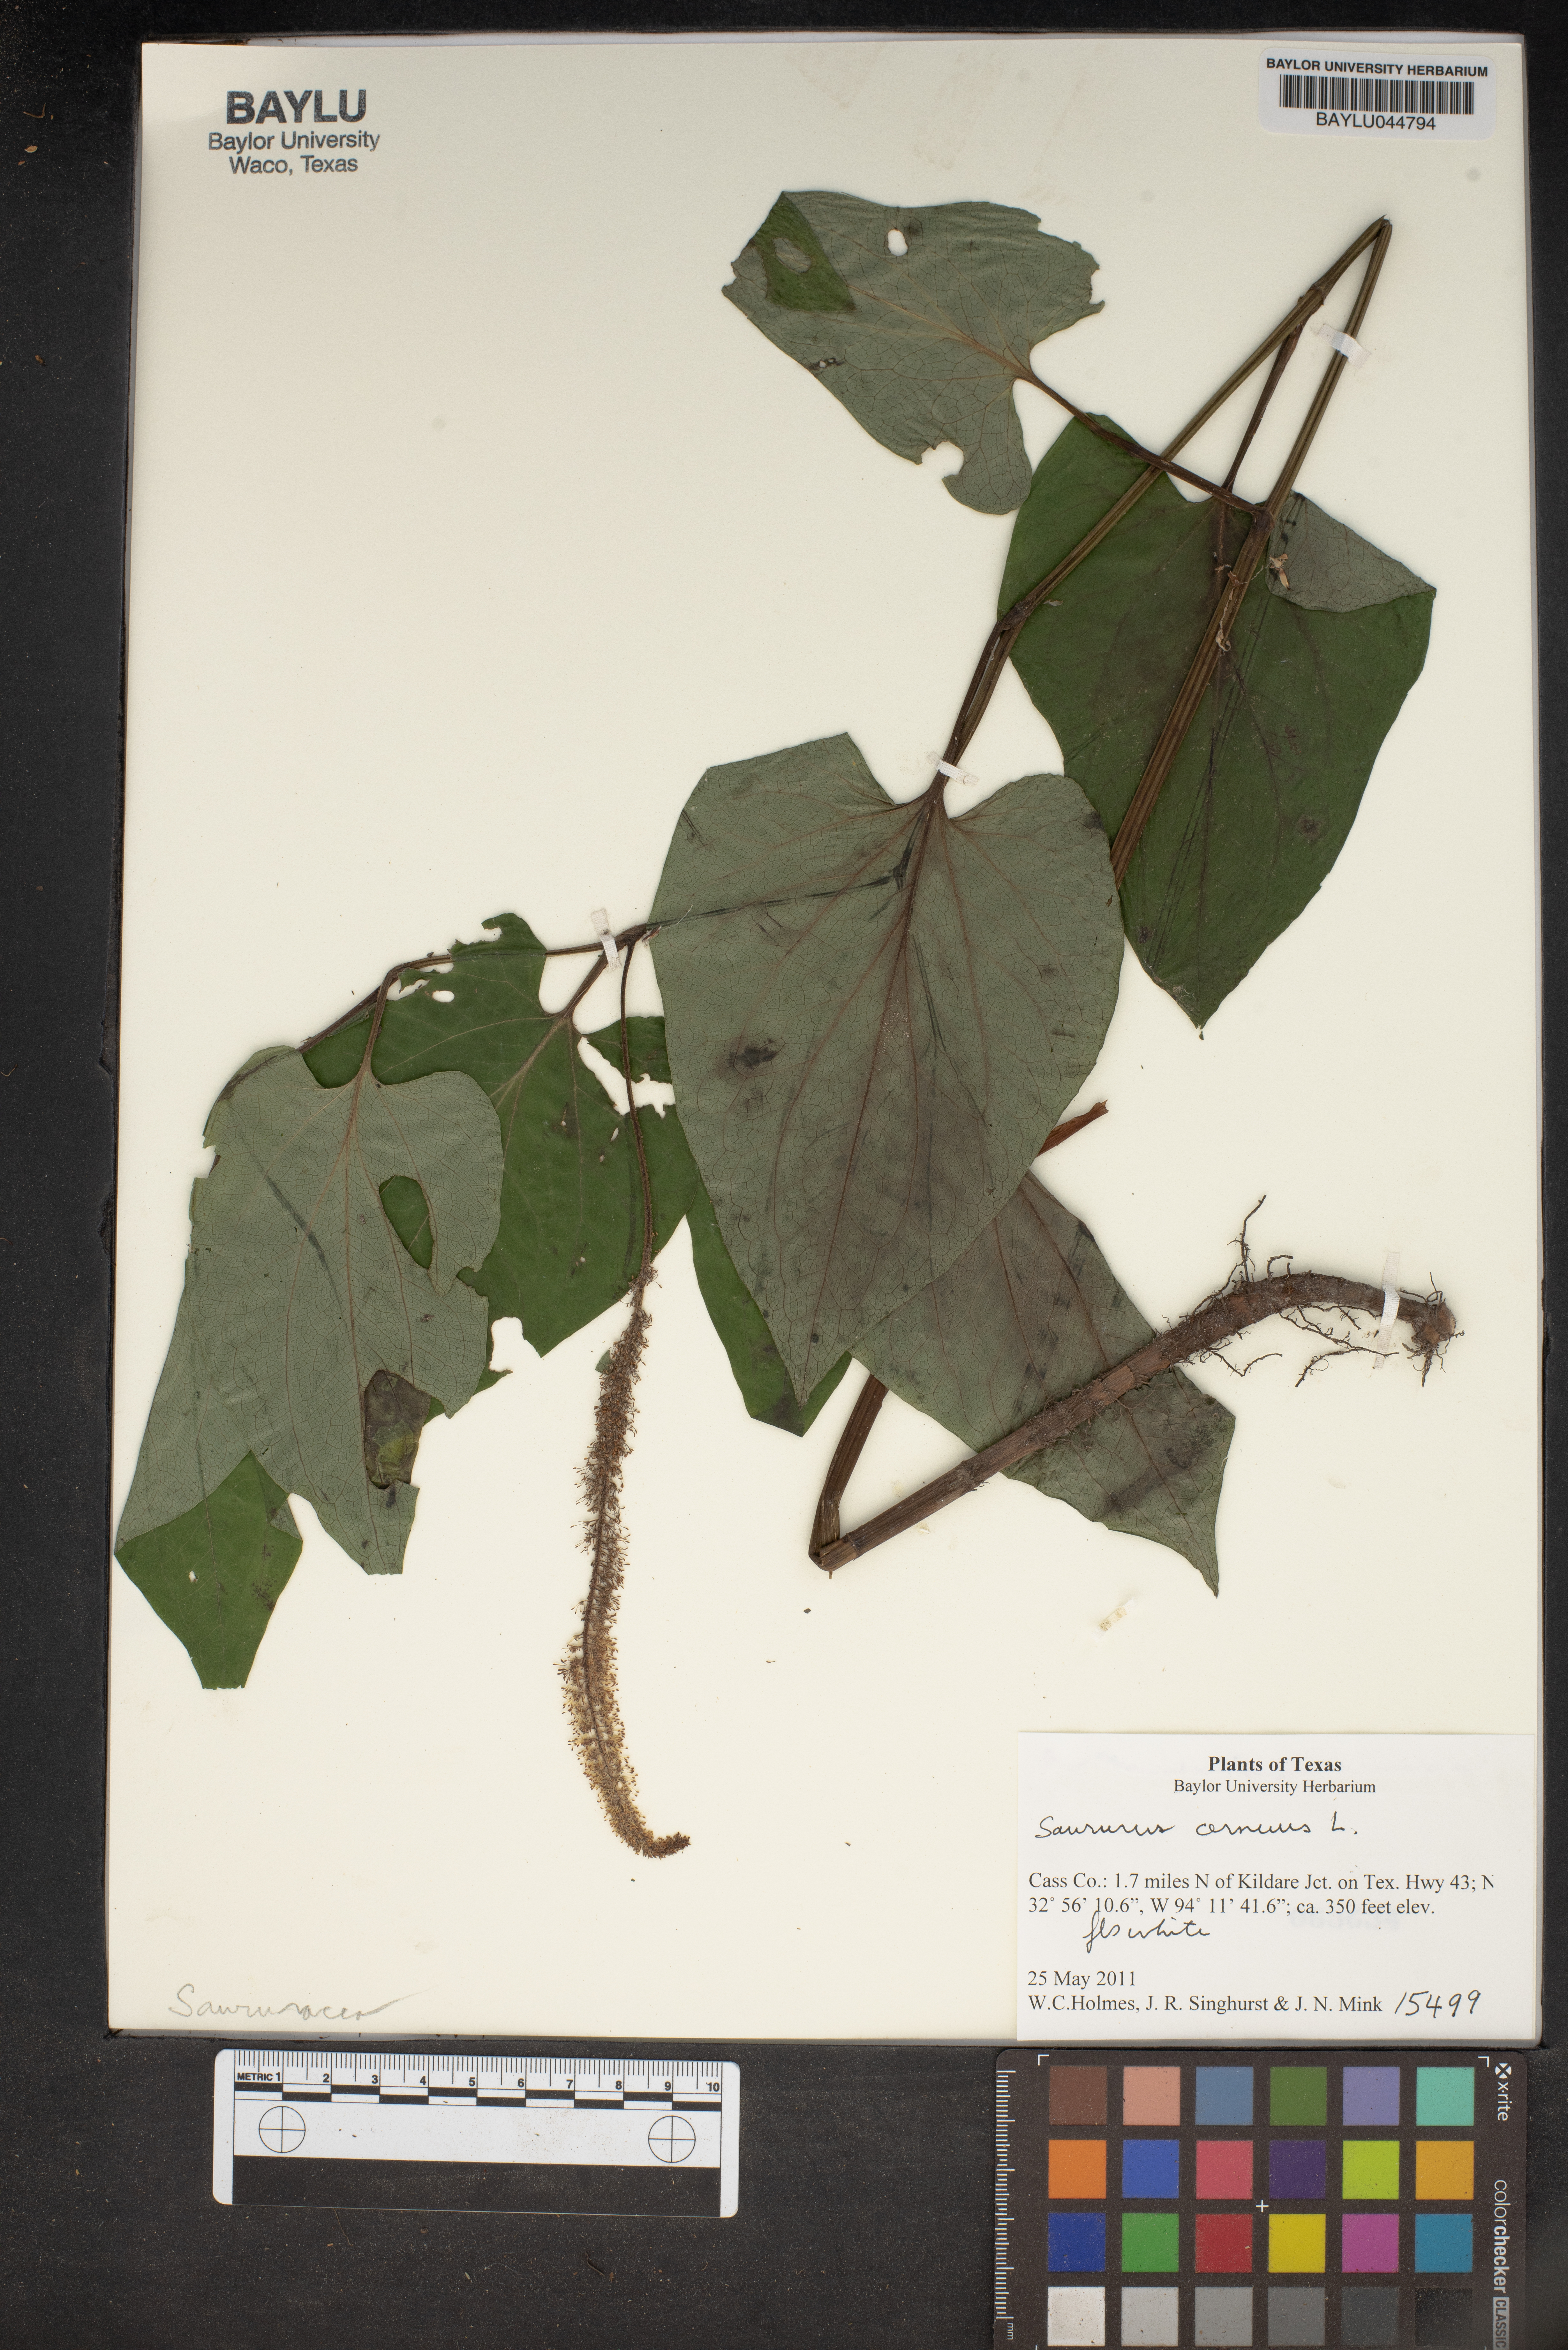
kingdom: Plantae
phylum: Tracheophyta
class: Magnoliopsida
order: Piperales
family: Saururaceae
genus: Saururus
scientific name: Saururus cernuus
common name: Lizard's-tail
